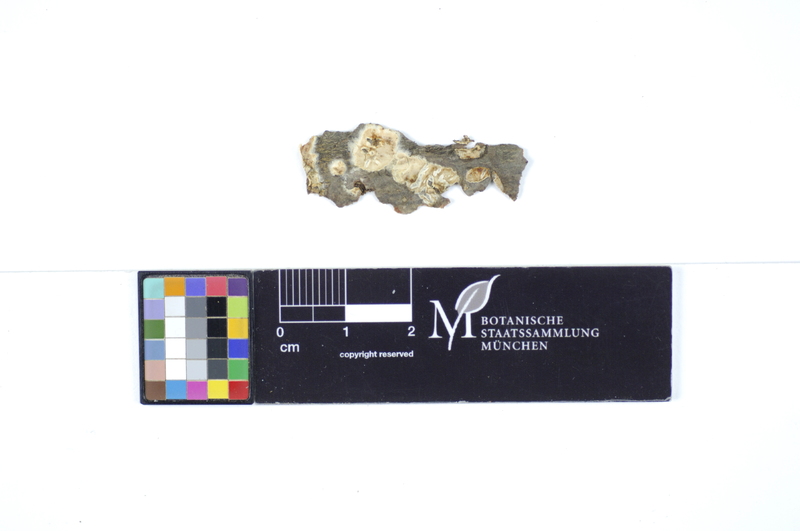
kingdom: Fungi
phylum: Basidiomycota
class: Agaricomycetes
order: Polyporales
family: Hyphodermataceae
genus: Mutatoderma
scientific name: Mutatoderma mutatum
